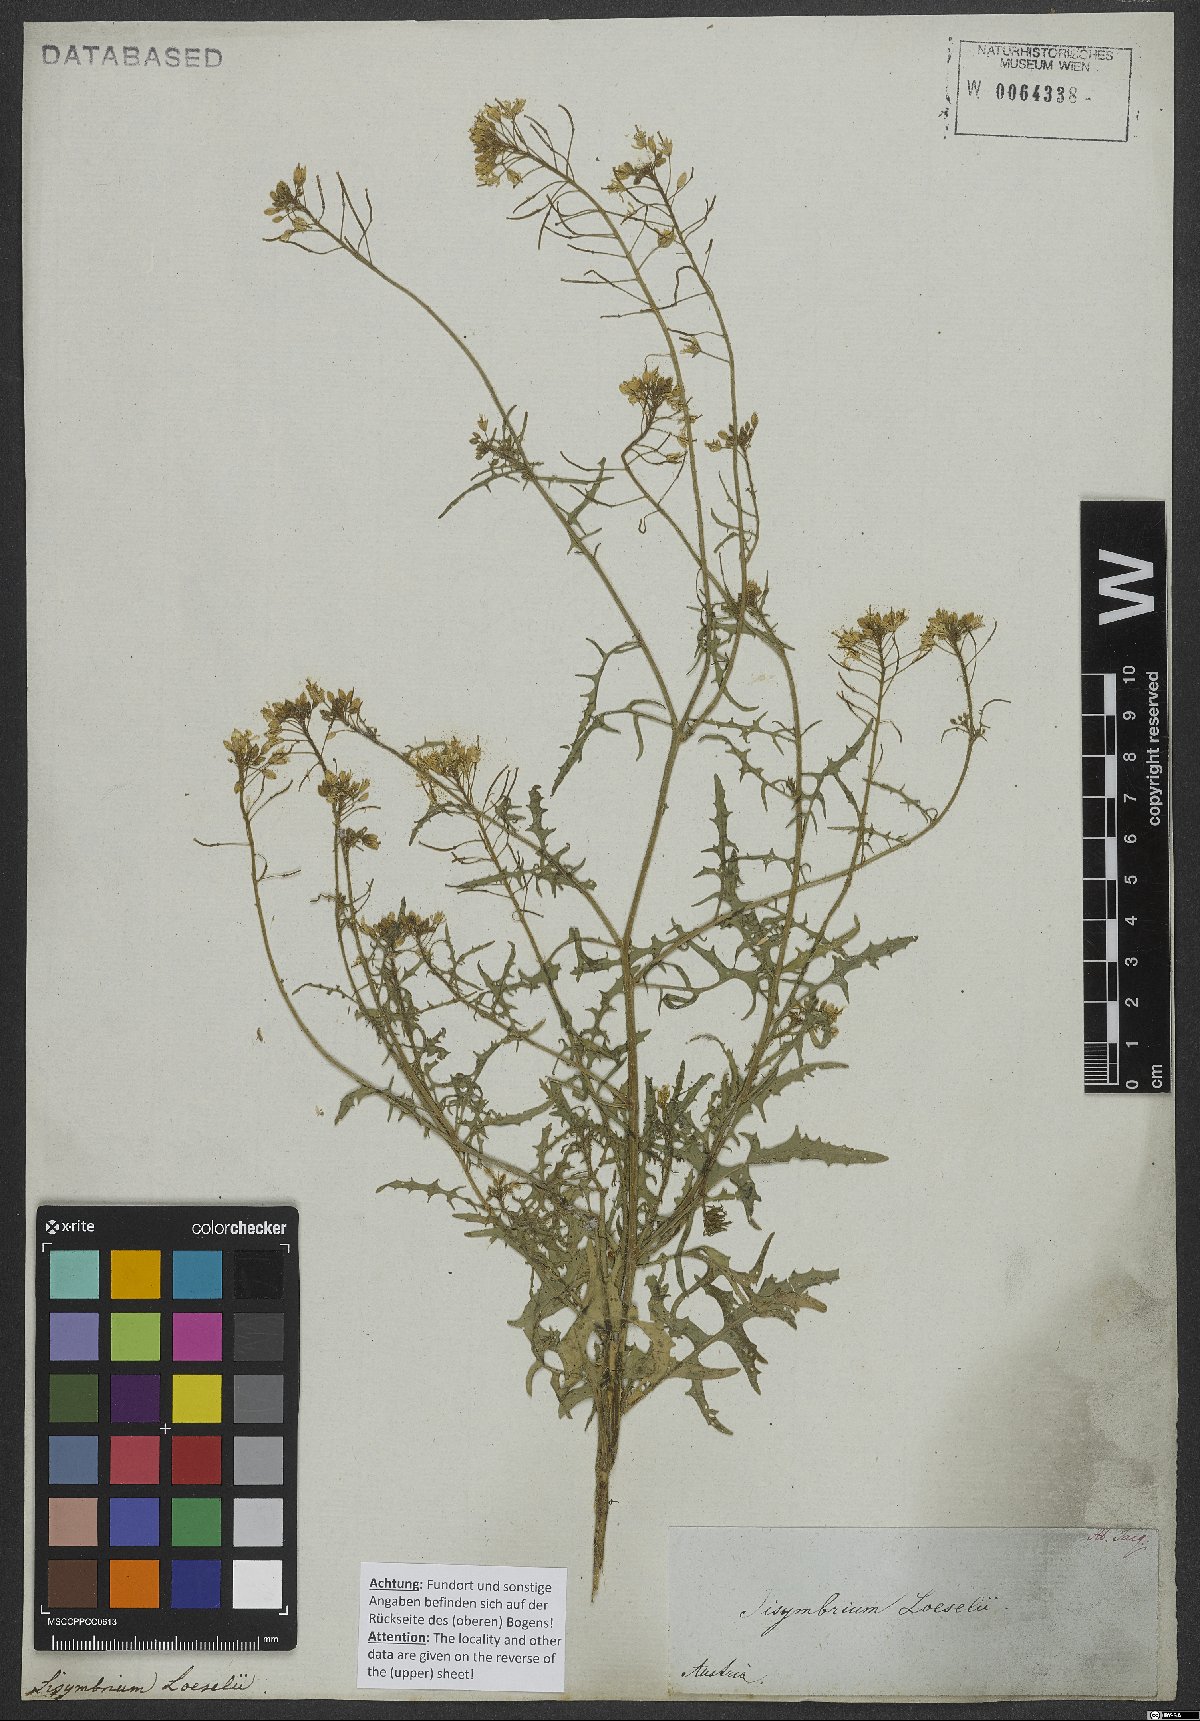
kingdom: Plantae
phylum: Tracheophyta
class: Magnoliopsida
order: Brassicales
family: Brassicaceae
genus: Sisymbrium
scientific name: Sisymbrium loeselii
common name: False london-rocket
